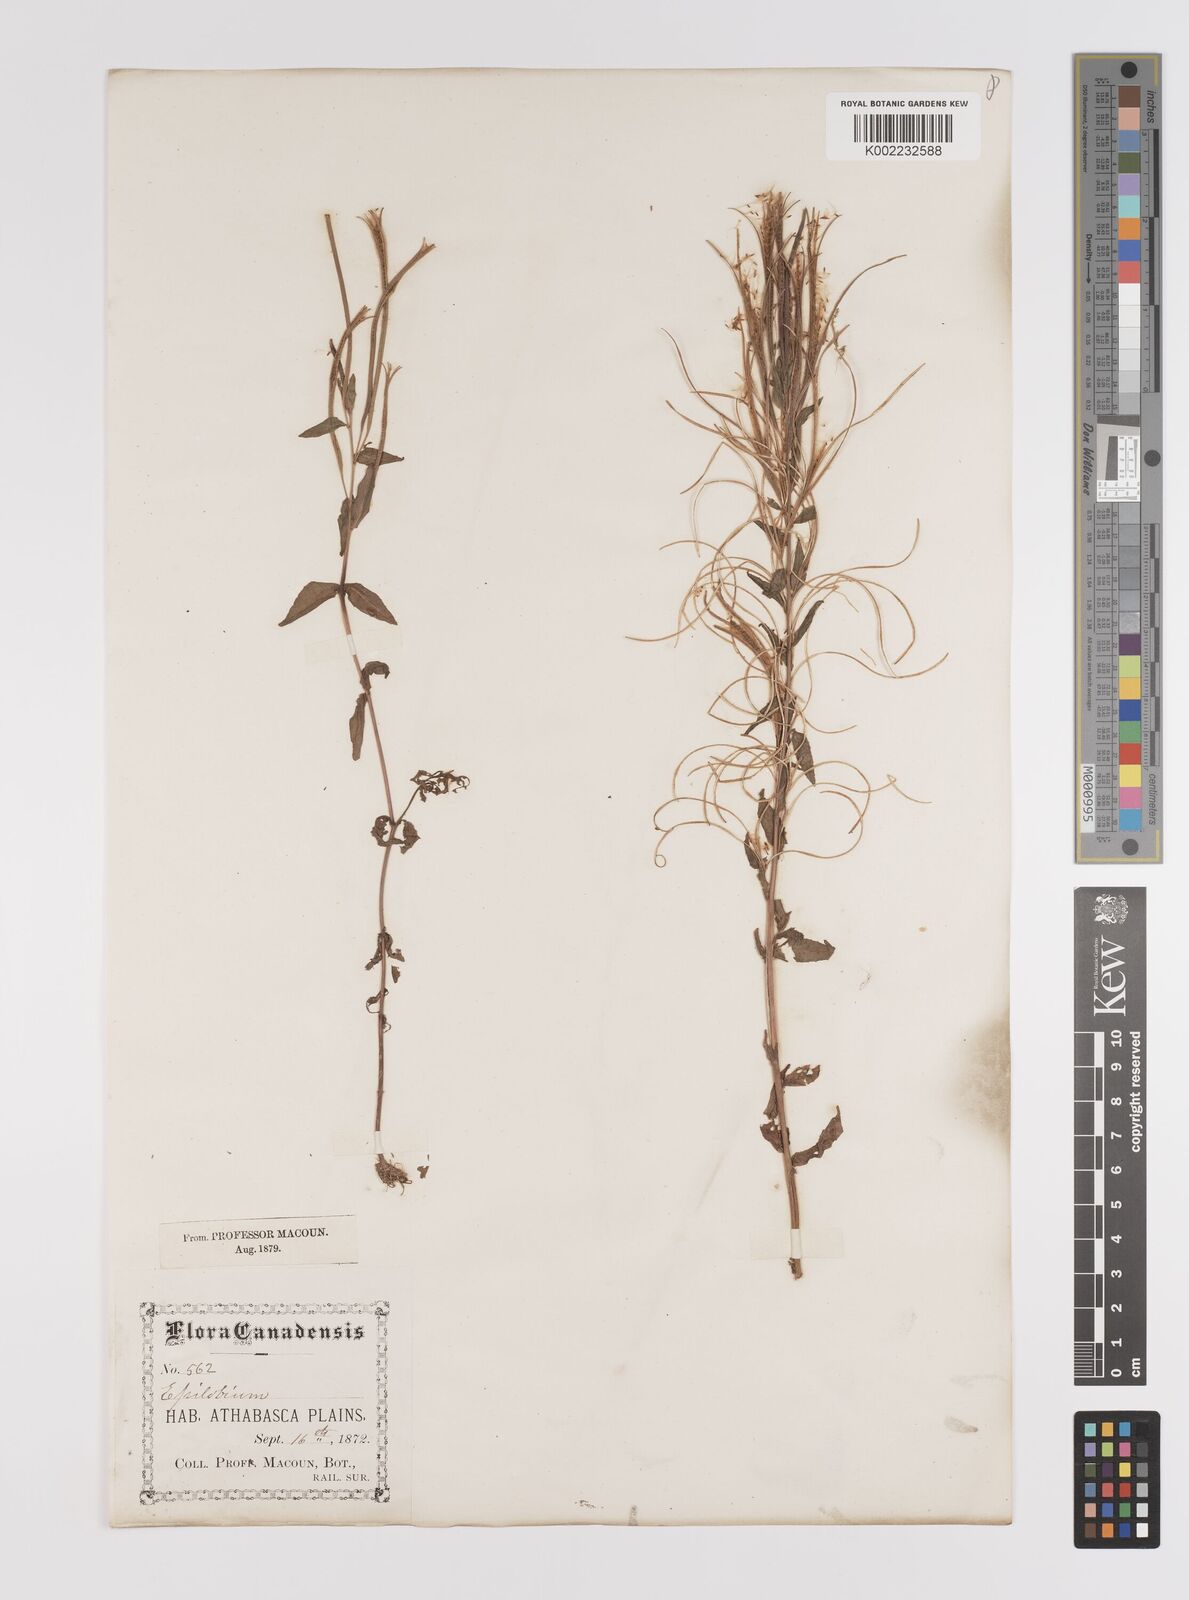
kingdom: Plantae
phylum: Tracheophyta
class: Magnoliopsida
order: Myrtales
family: Onagraceae
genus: Epilobium
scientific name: Epilobium coloratum
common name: Bronze willowherb
